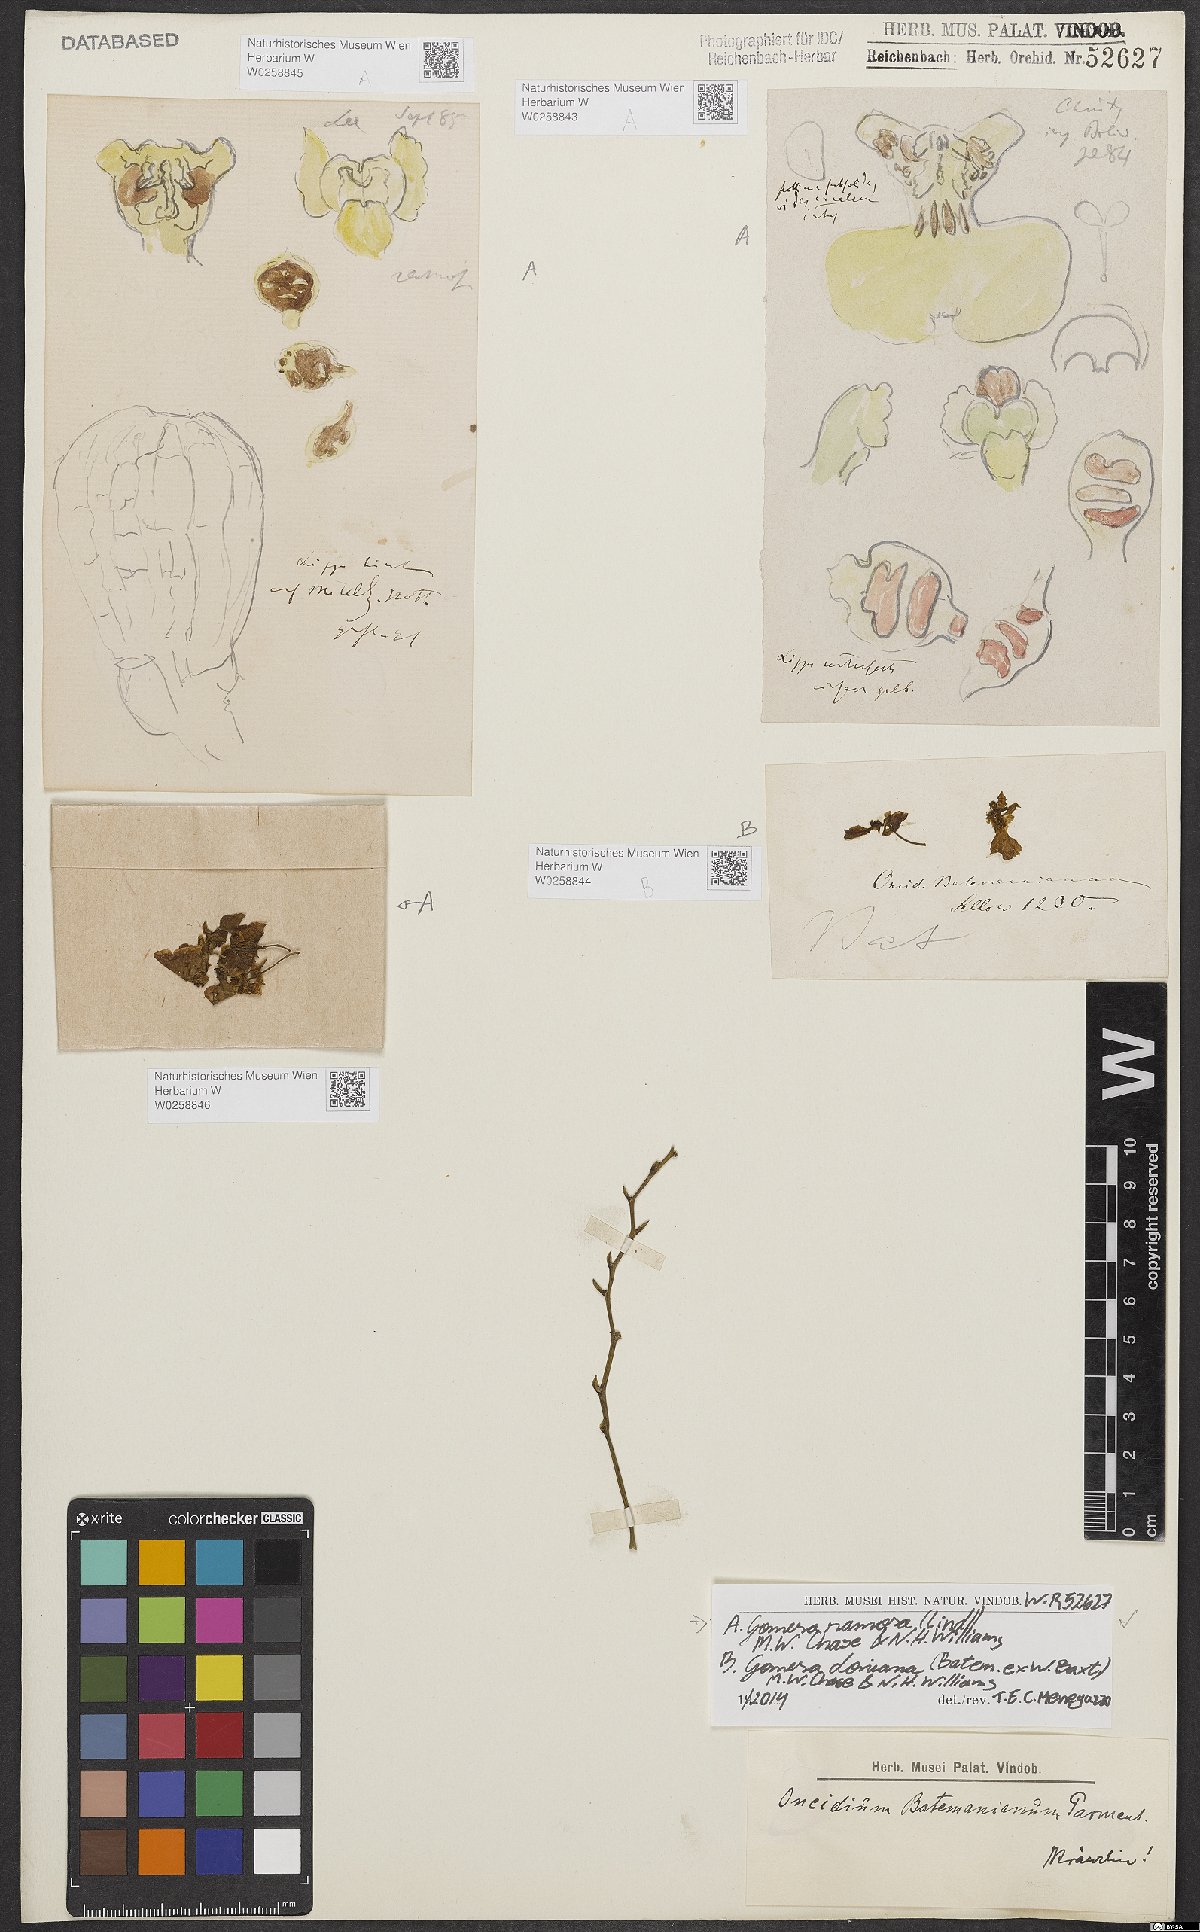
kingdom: Plantae
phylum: Tracheophyta
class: Liliopsida
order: Asparagales
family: Orchidaceae
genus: Gomesa
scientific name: Gomesa doniana
